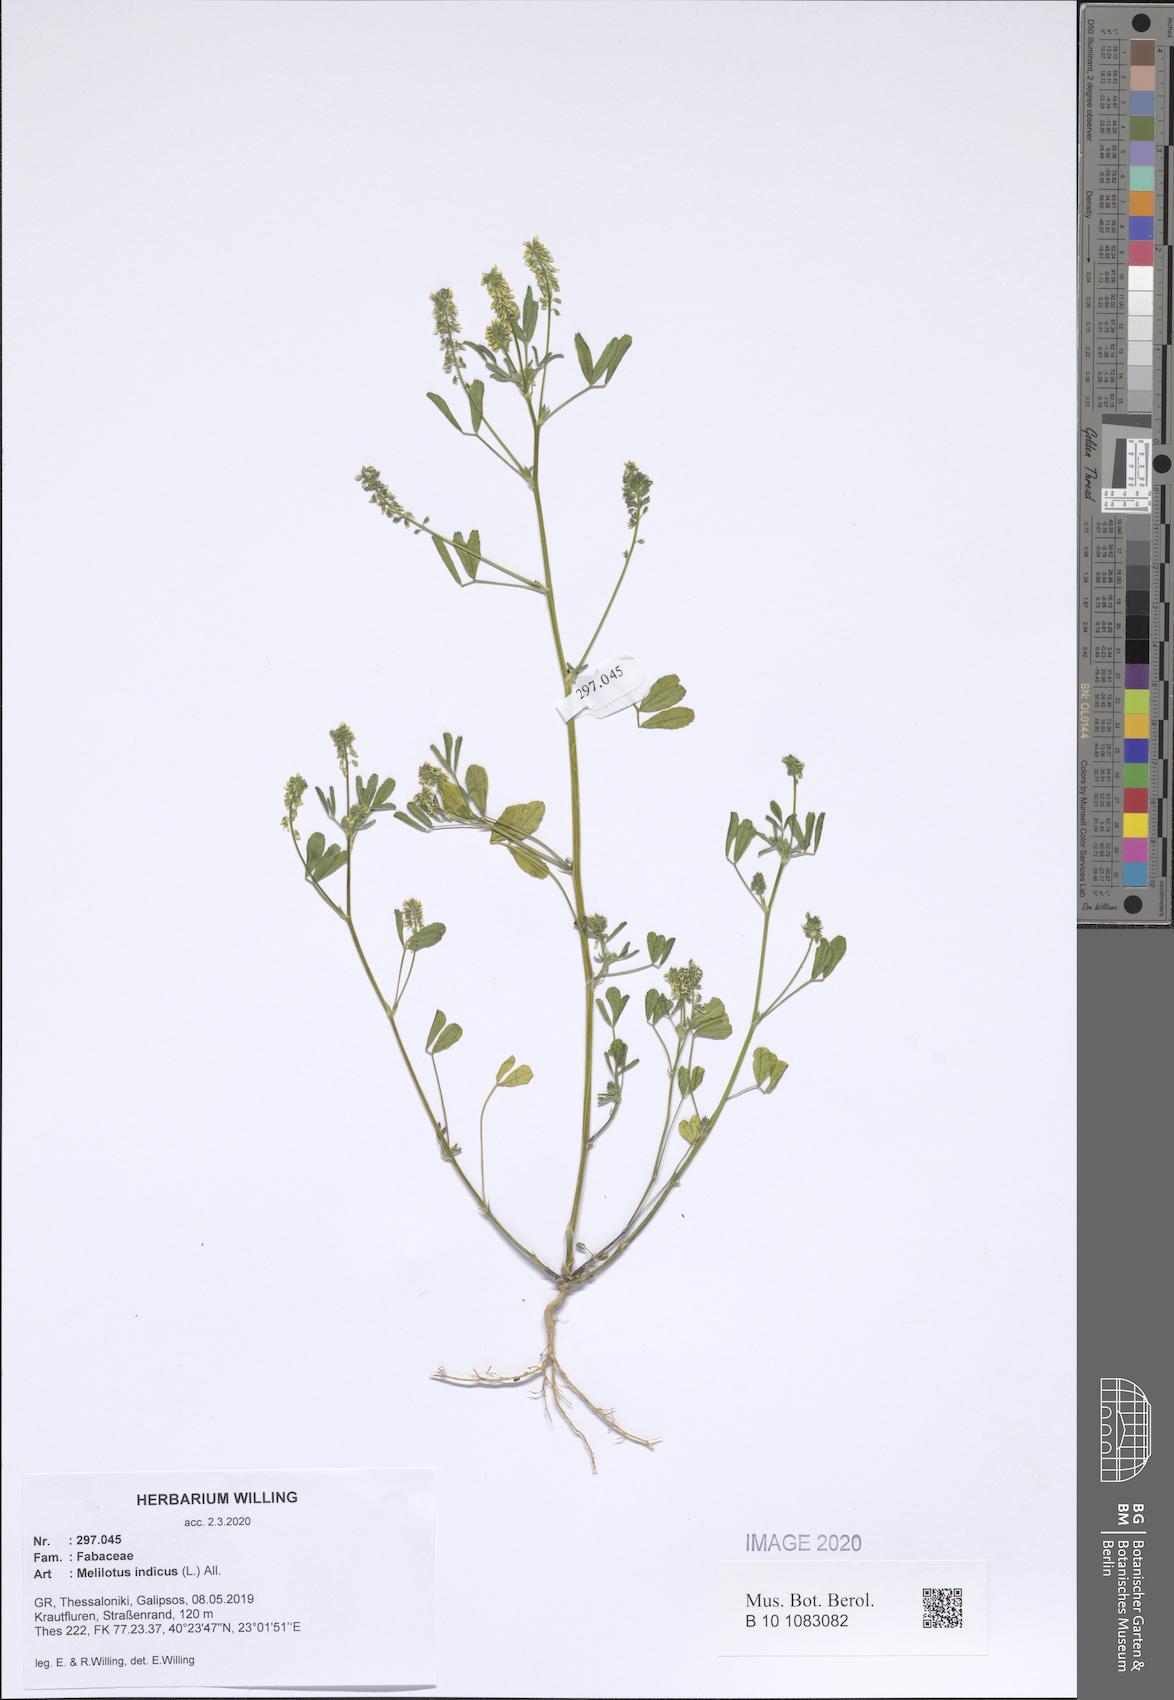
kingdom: Plantae
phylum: Tracheophyta
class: Magnoliopsida
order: Fabales
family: Fabaceae
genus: Melilotus
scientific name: Melilotus indicus
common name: Small melilot
